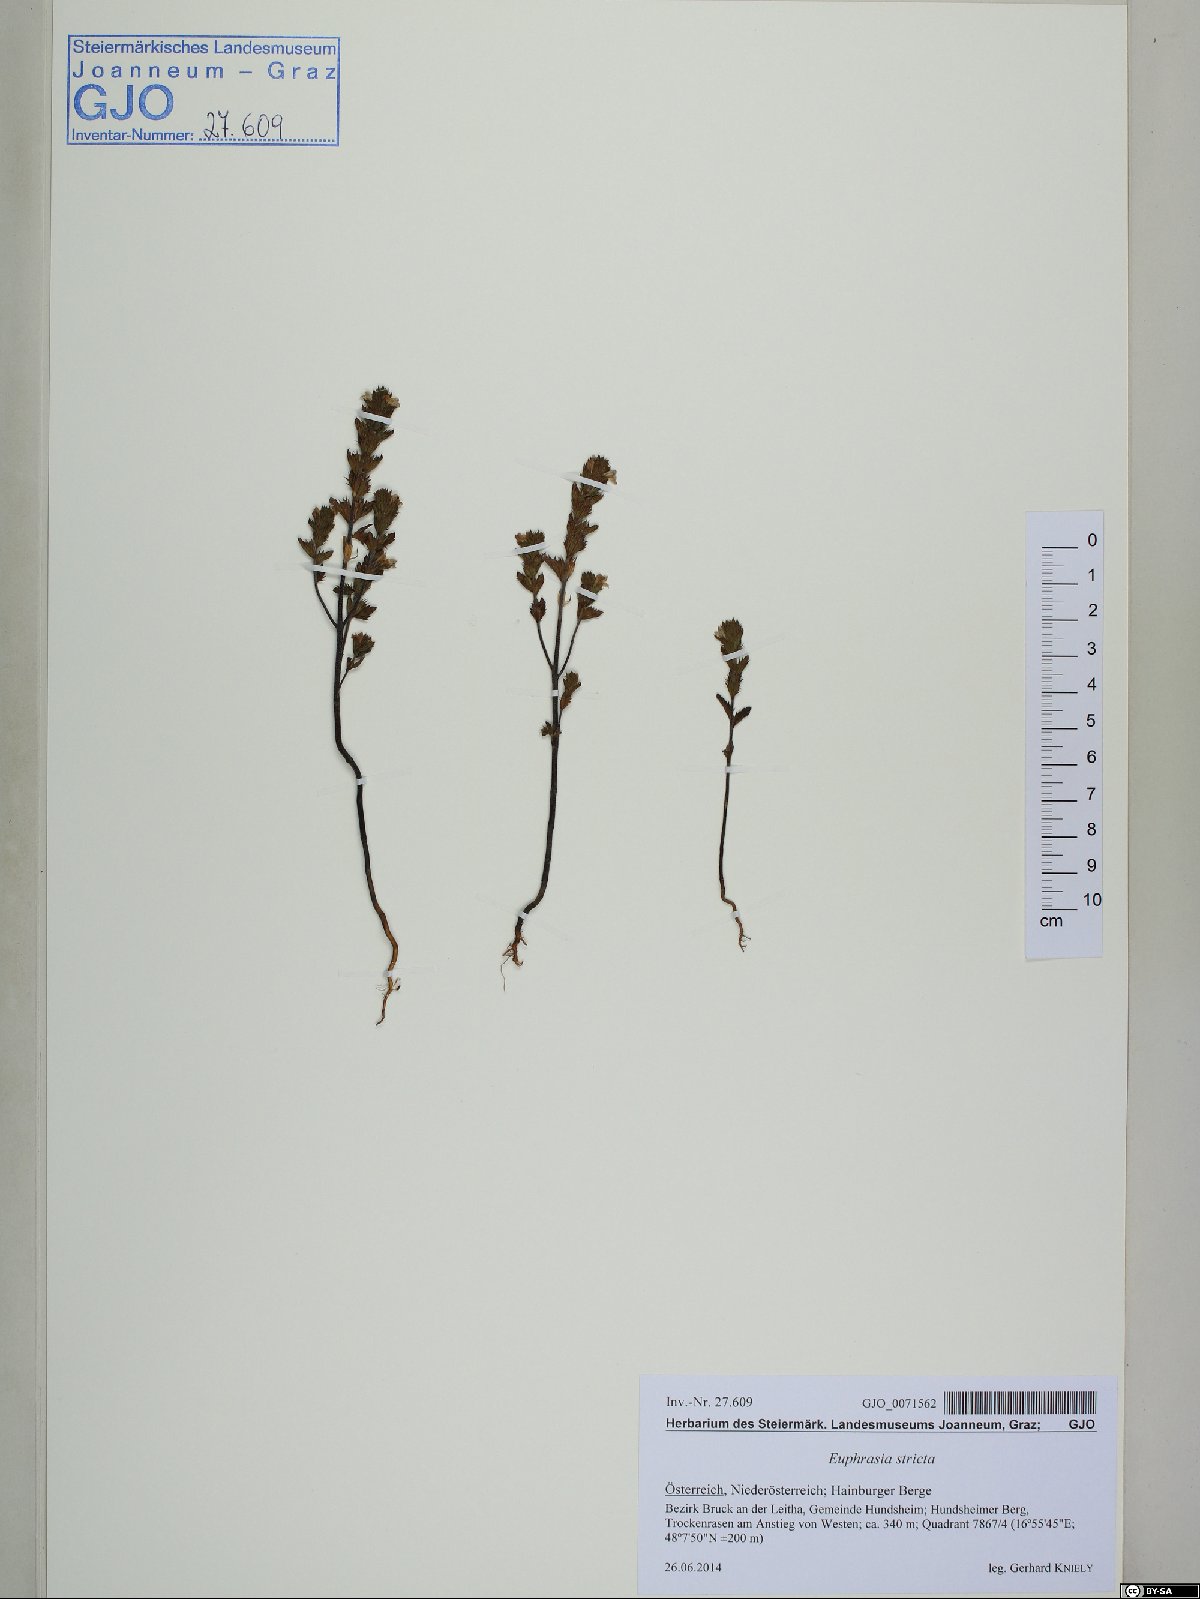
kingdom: Plantae
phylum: Tracheophyta
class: Magnoliopsida
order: Lamiales
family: Orobanchaceae
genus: Euphrasia
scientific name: Euphrasia stricta
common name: Drug eyebright
